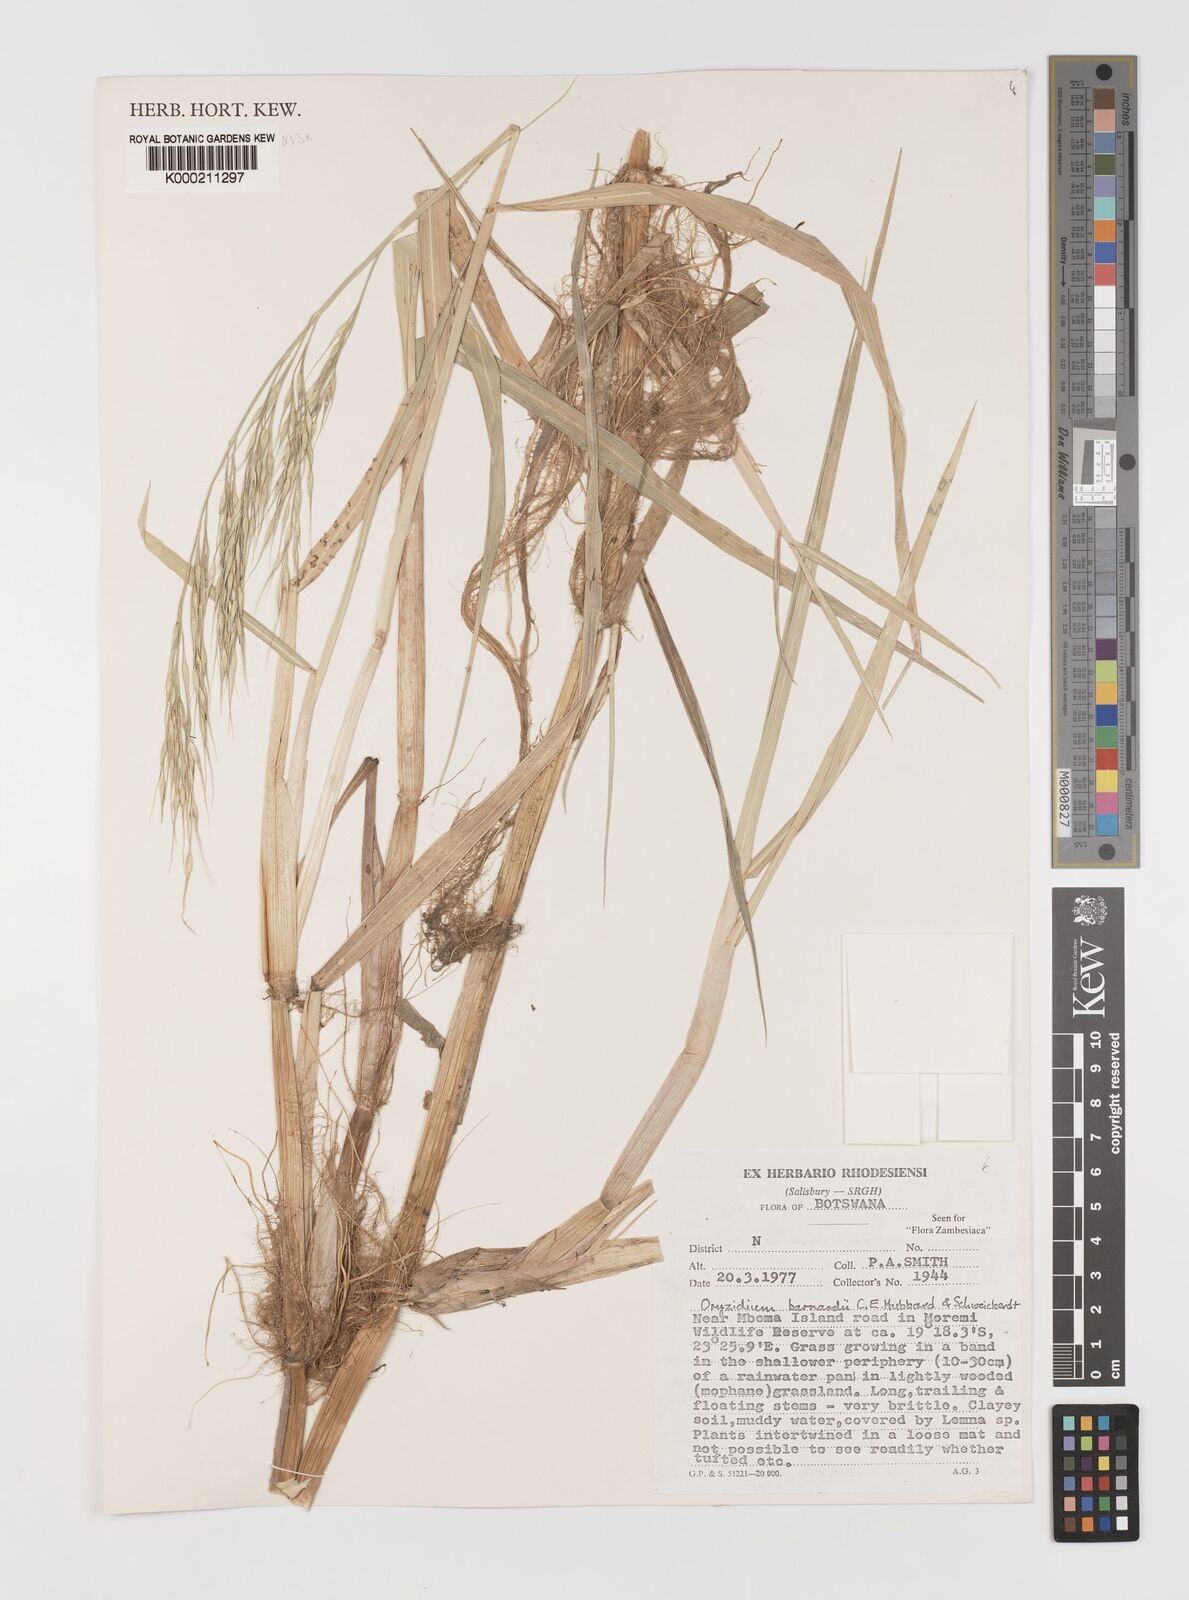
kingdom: Plantae
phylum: Tracheophyta
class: Liliopsida
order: Poales
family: Poaceae
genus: Oryzidium
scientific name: Oryzidium barnardii
